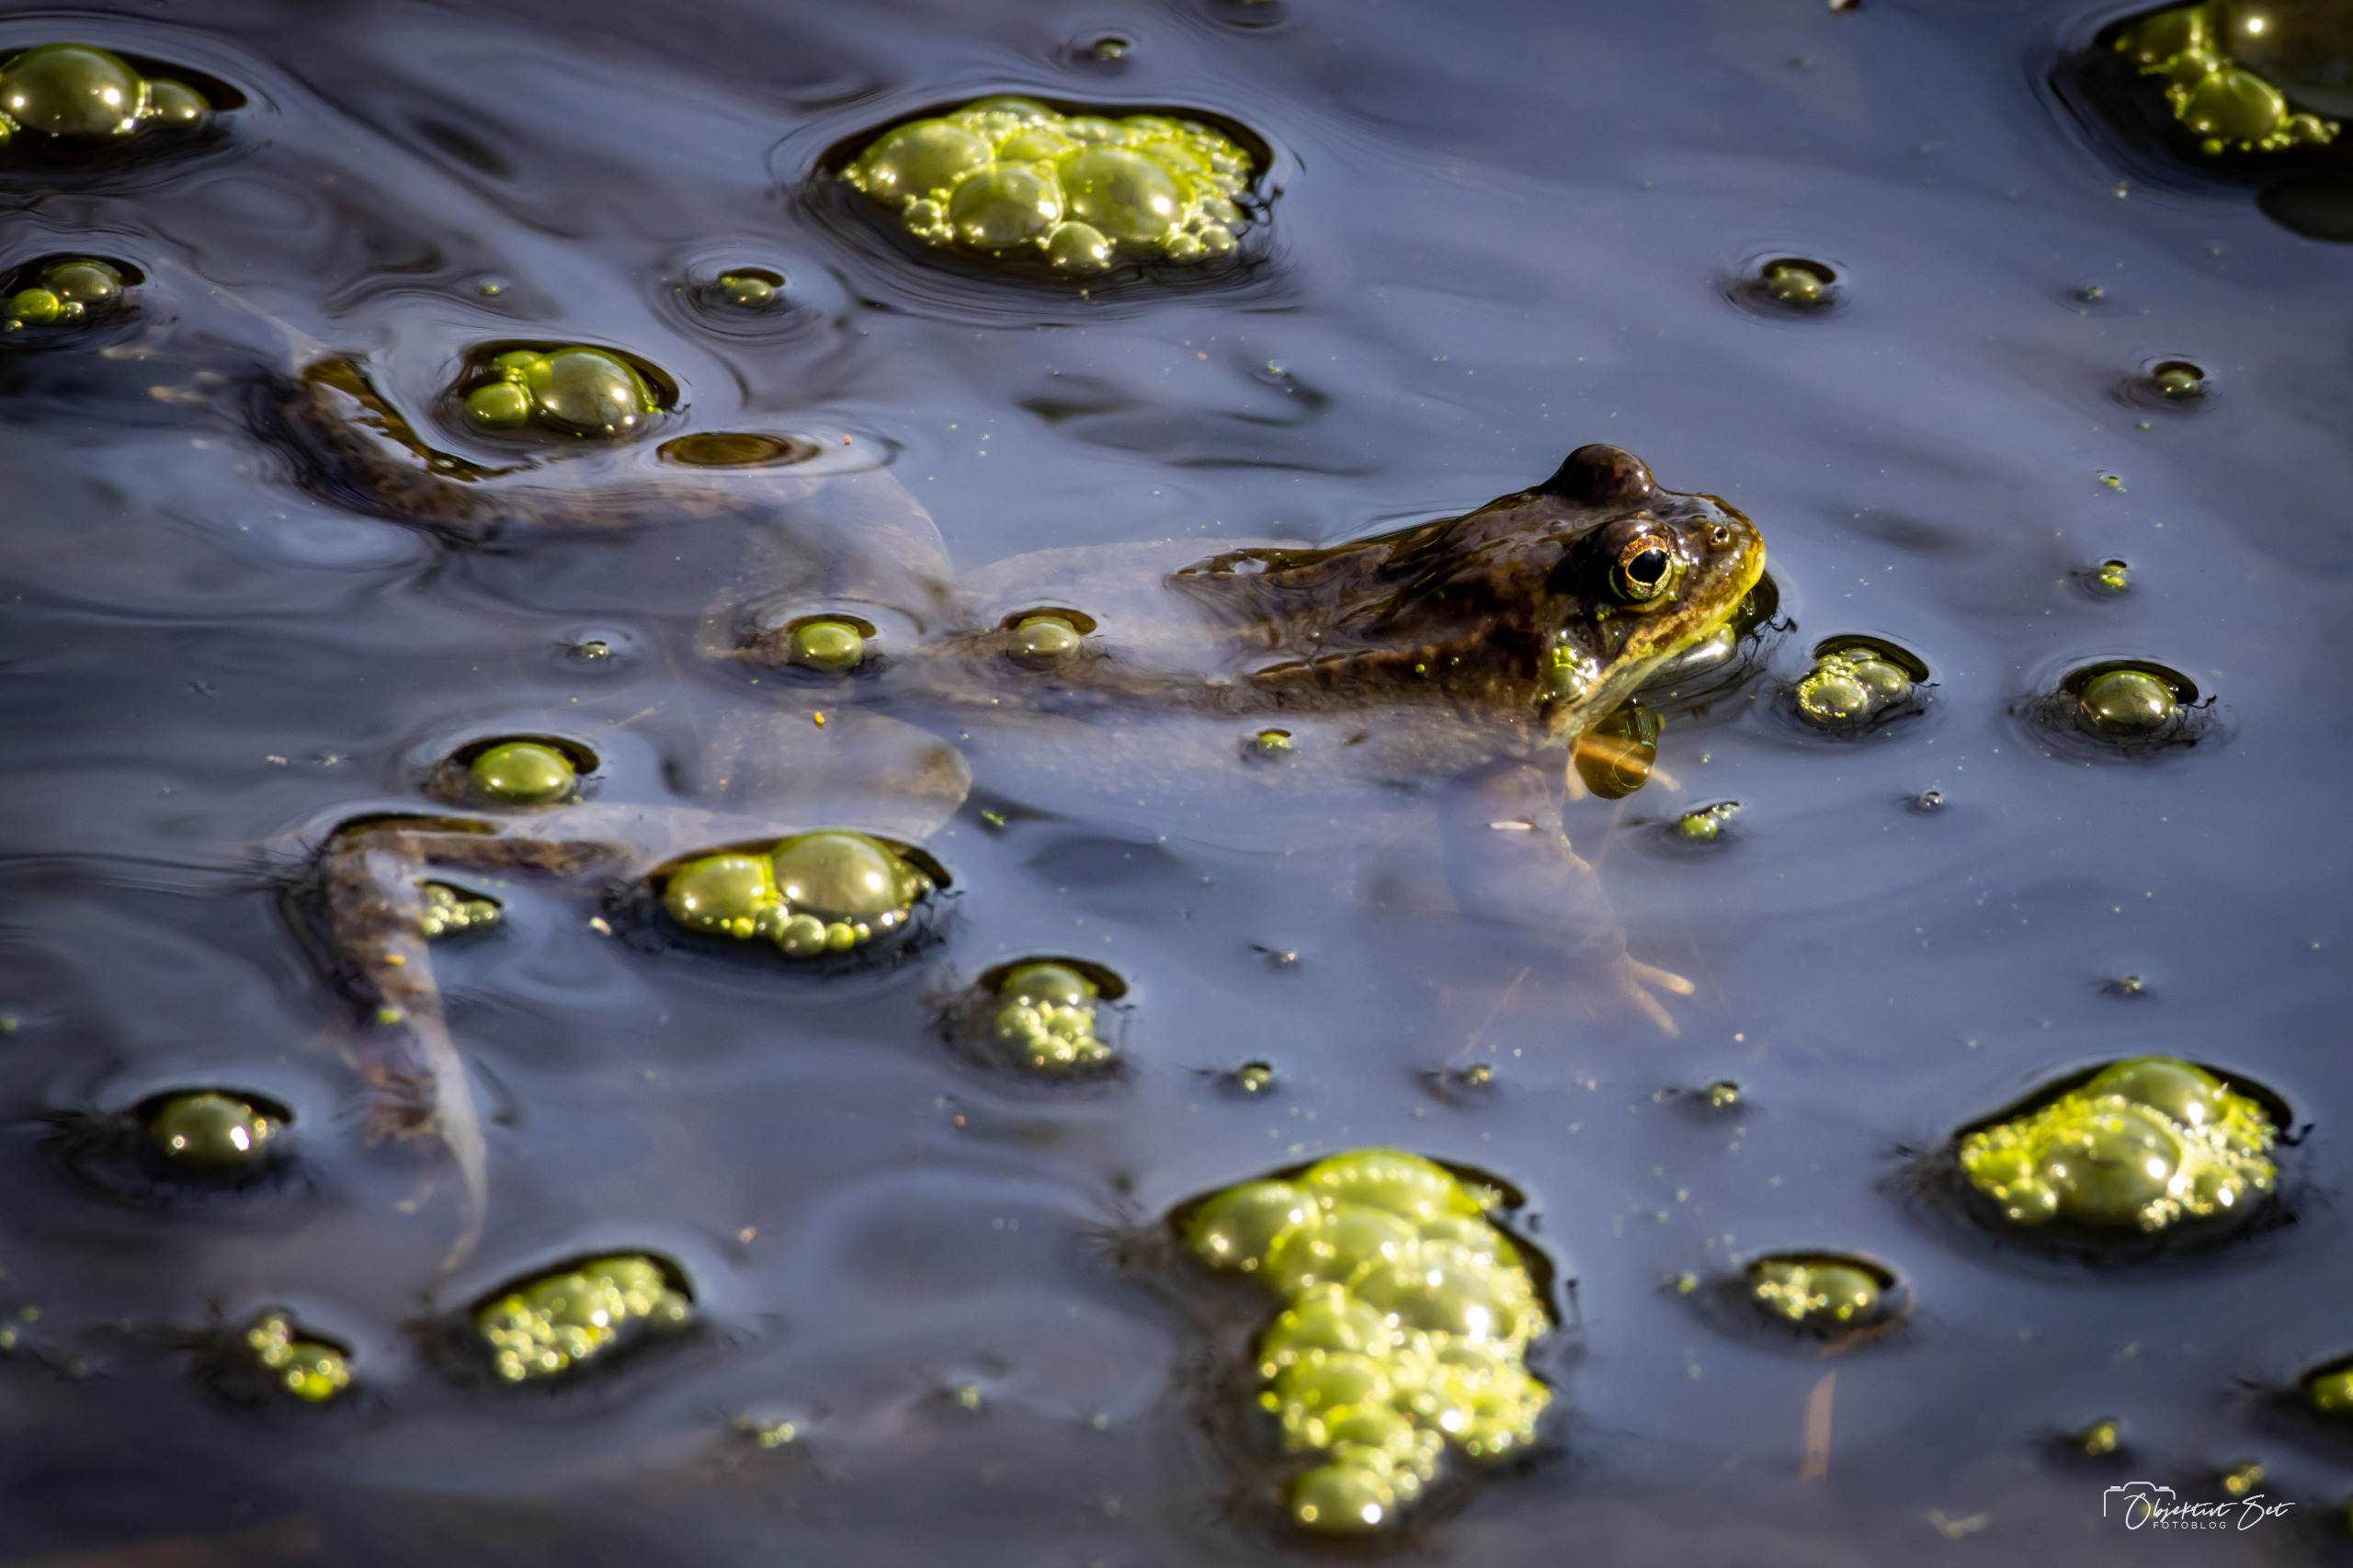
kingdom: Animalia
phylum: Chordata
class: Amphibia
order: Anura
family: Ranidae
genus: Rana
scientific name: Rana temporaria
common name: Butsnudet frø
